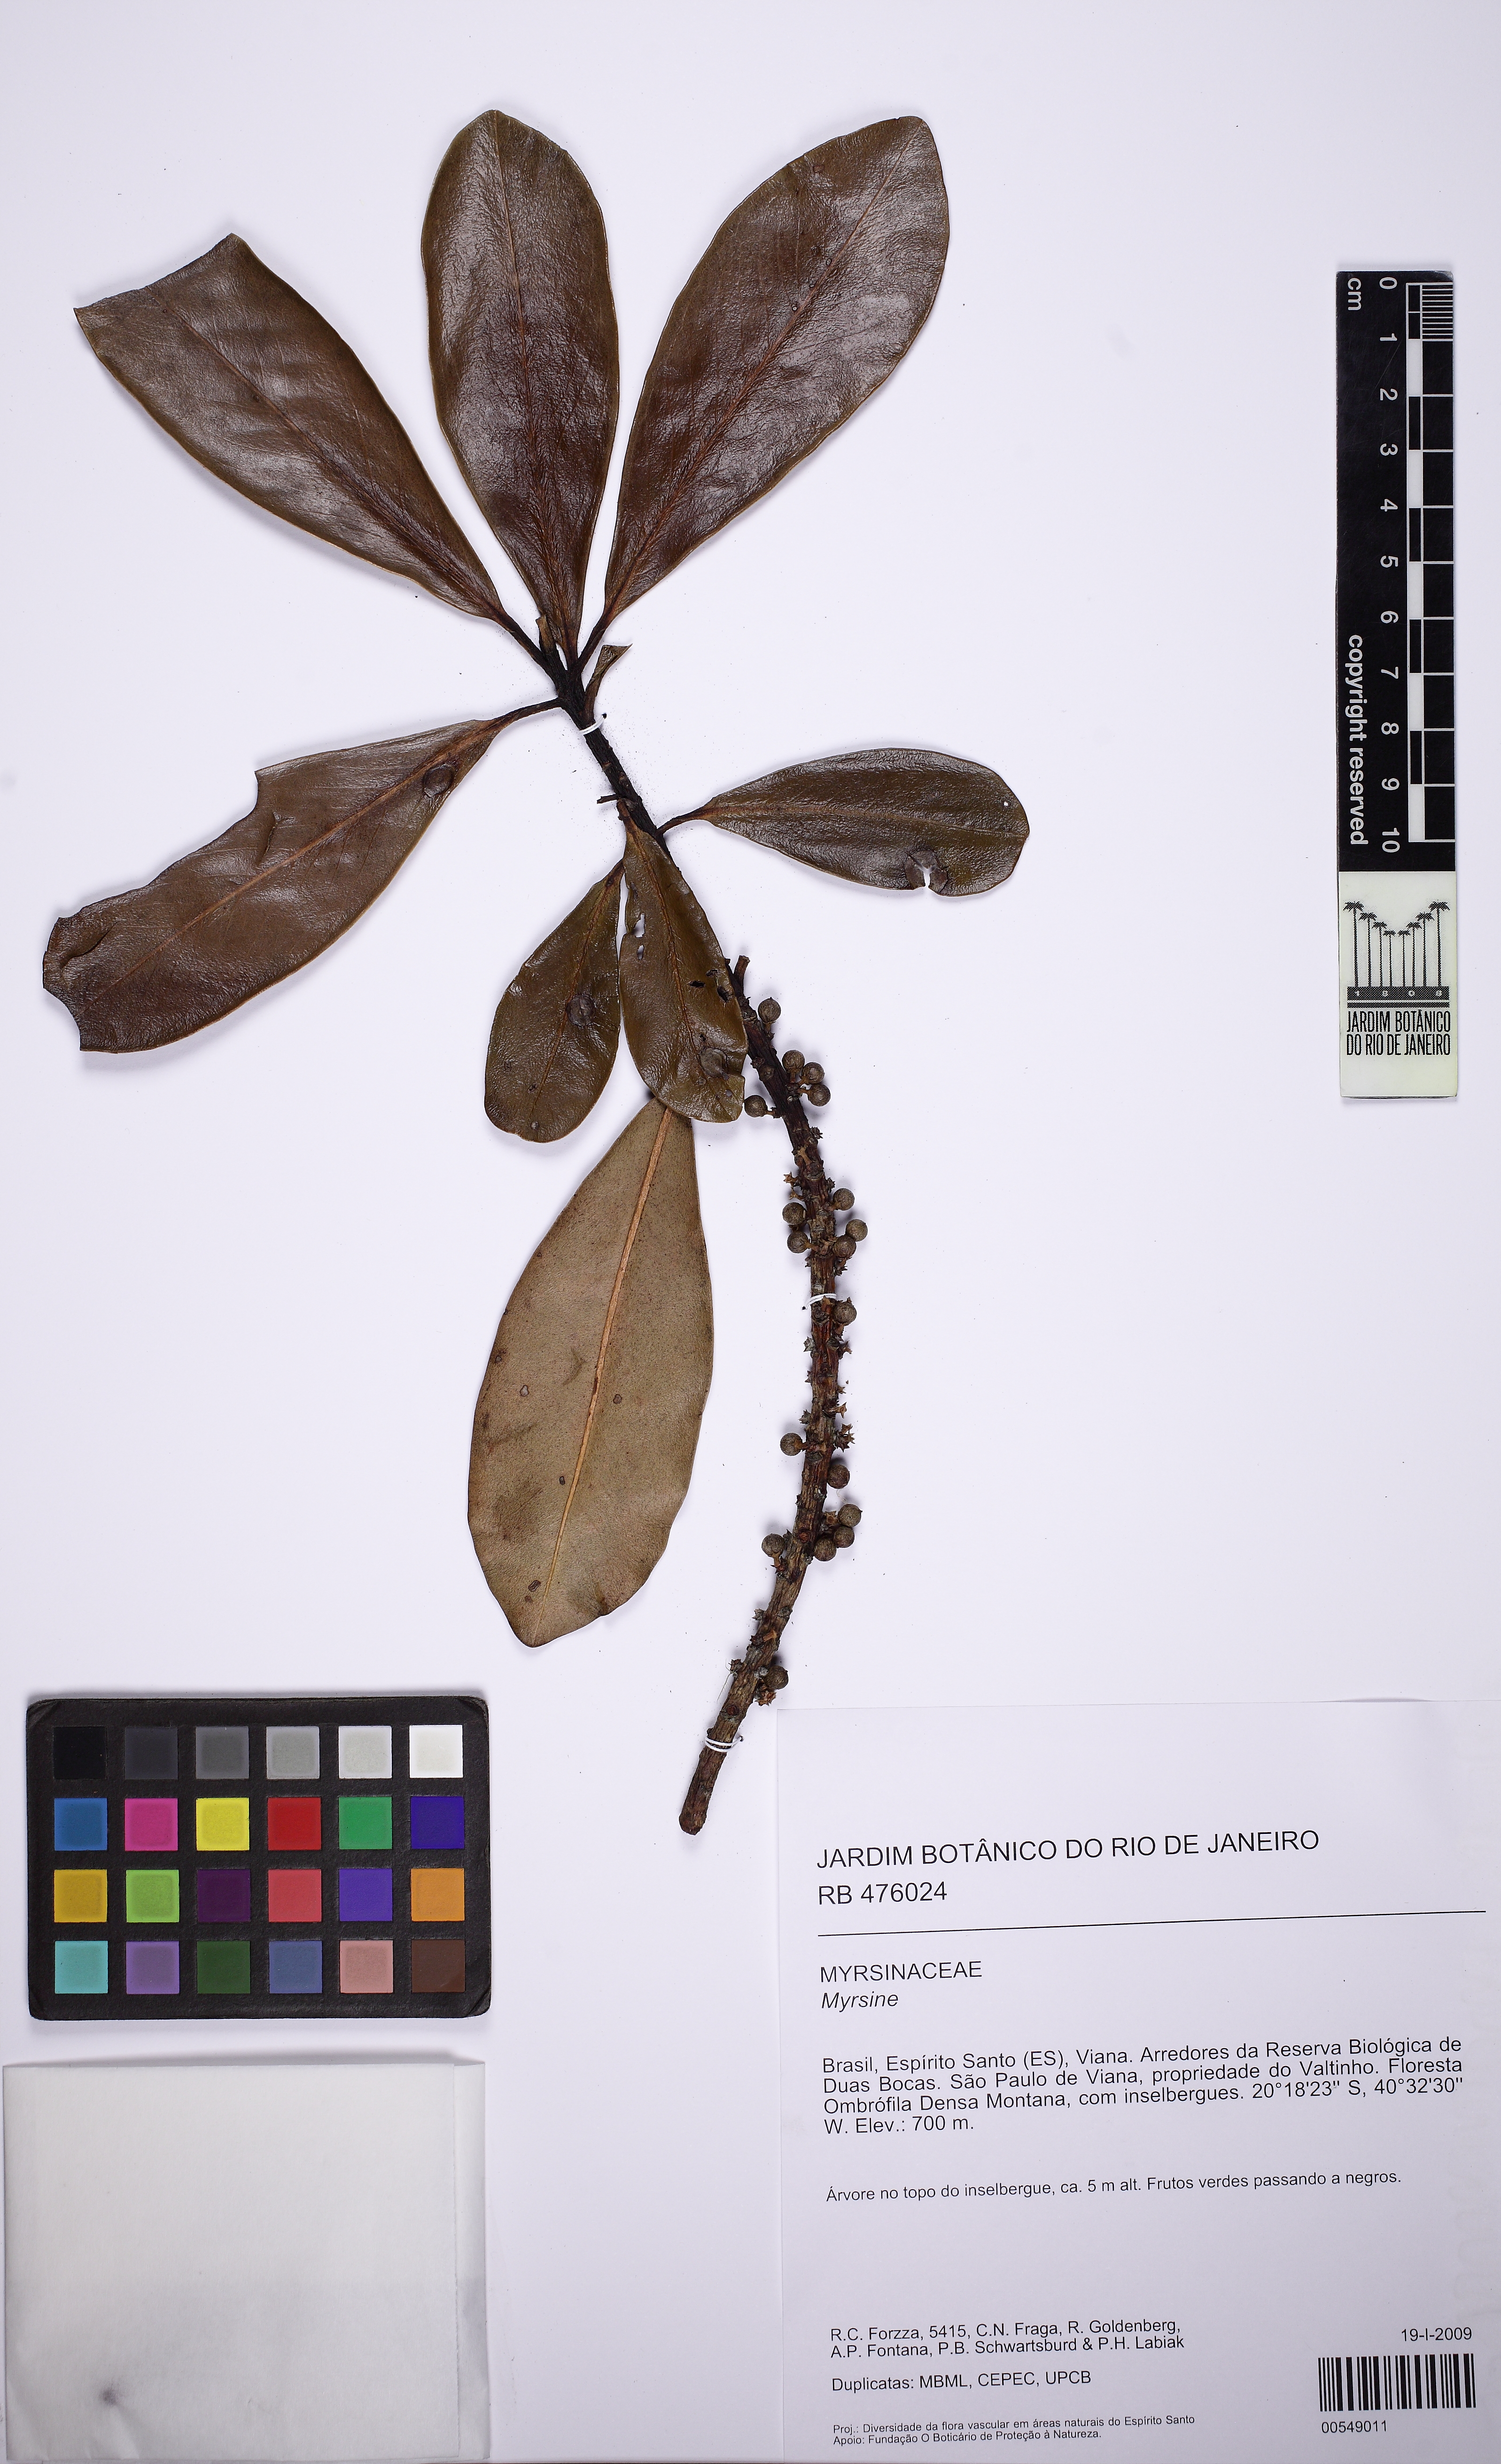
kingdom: Plantae
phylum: Tracheophyta
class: Magnoliopsida
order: Ericales
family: Primulaceae
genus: Myrsine
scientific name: Myrsine gardneriana
